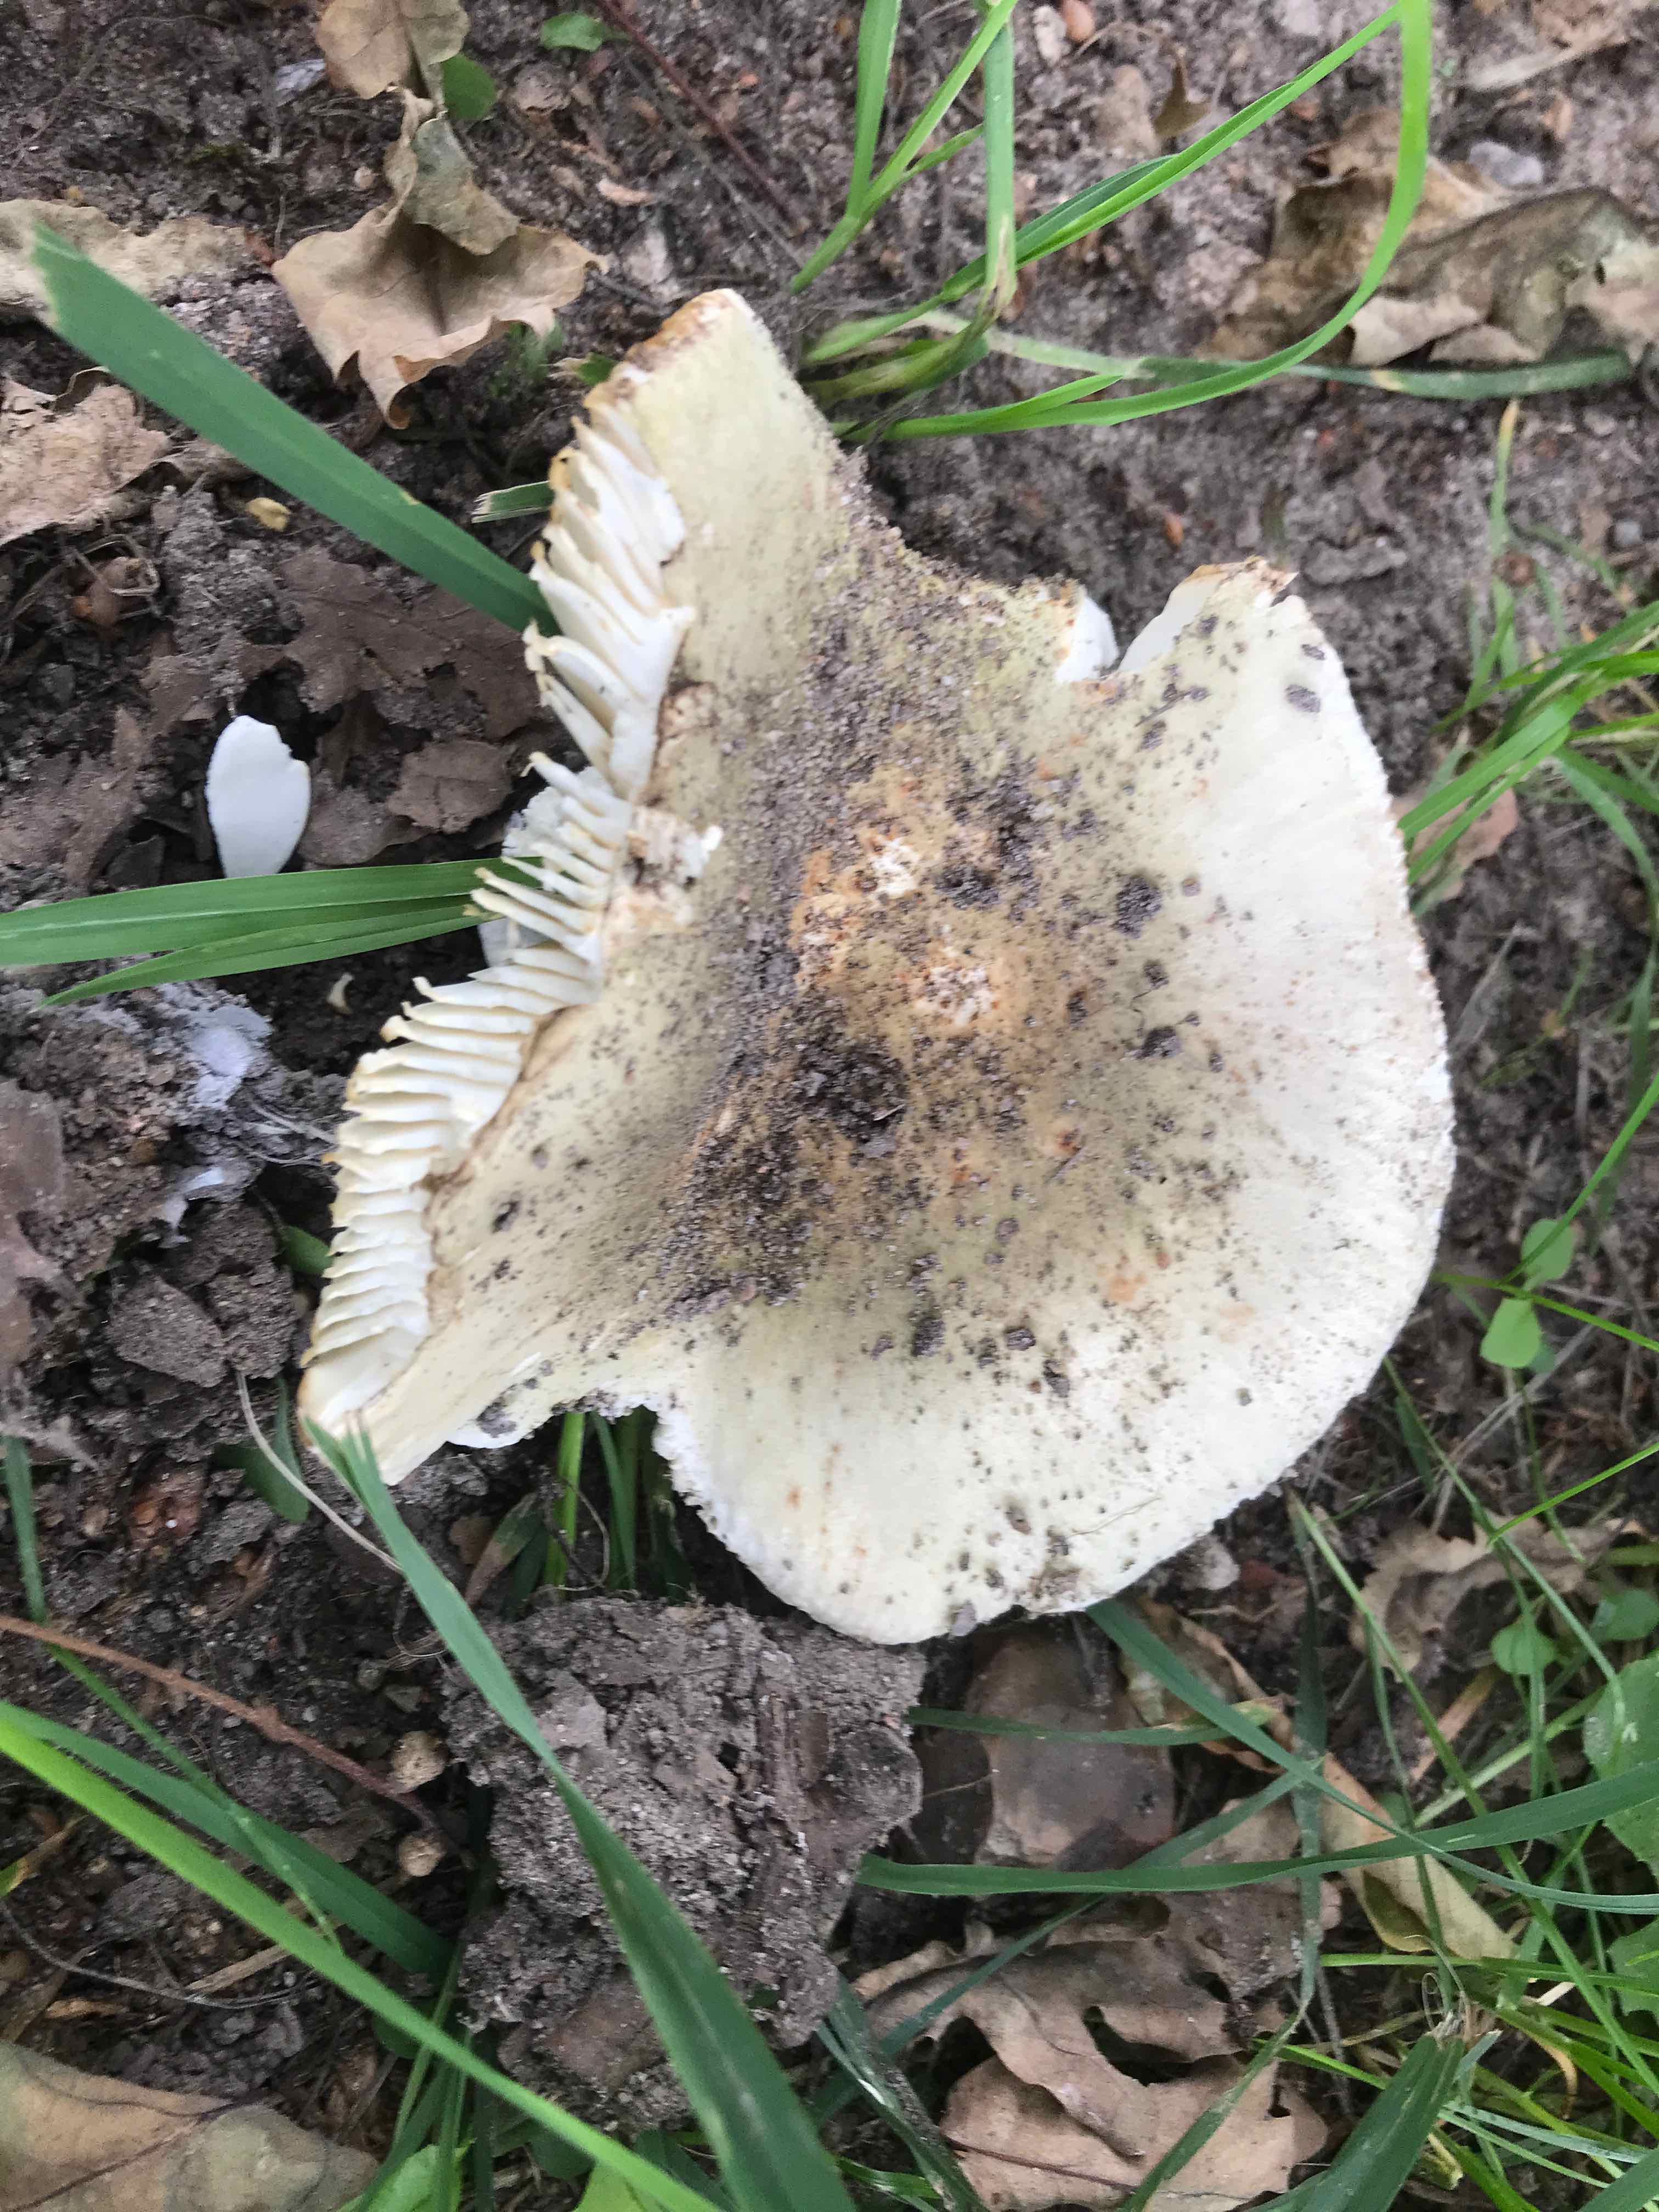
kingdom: Fungi
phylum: Basidiomycota
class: Agaricomycetes
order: Russulales
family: Russulaceae
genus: Russula
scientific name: Russula virescens
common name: spanskgrøn skørhat
